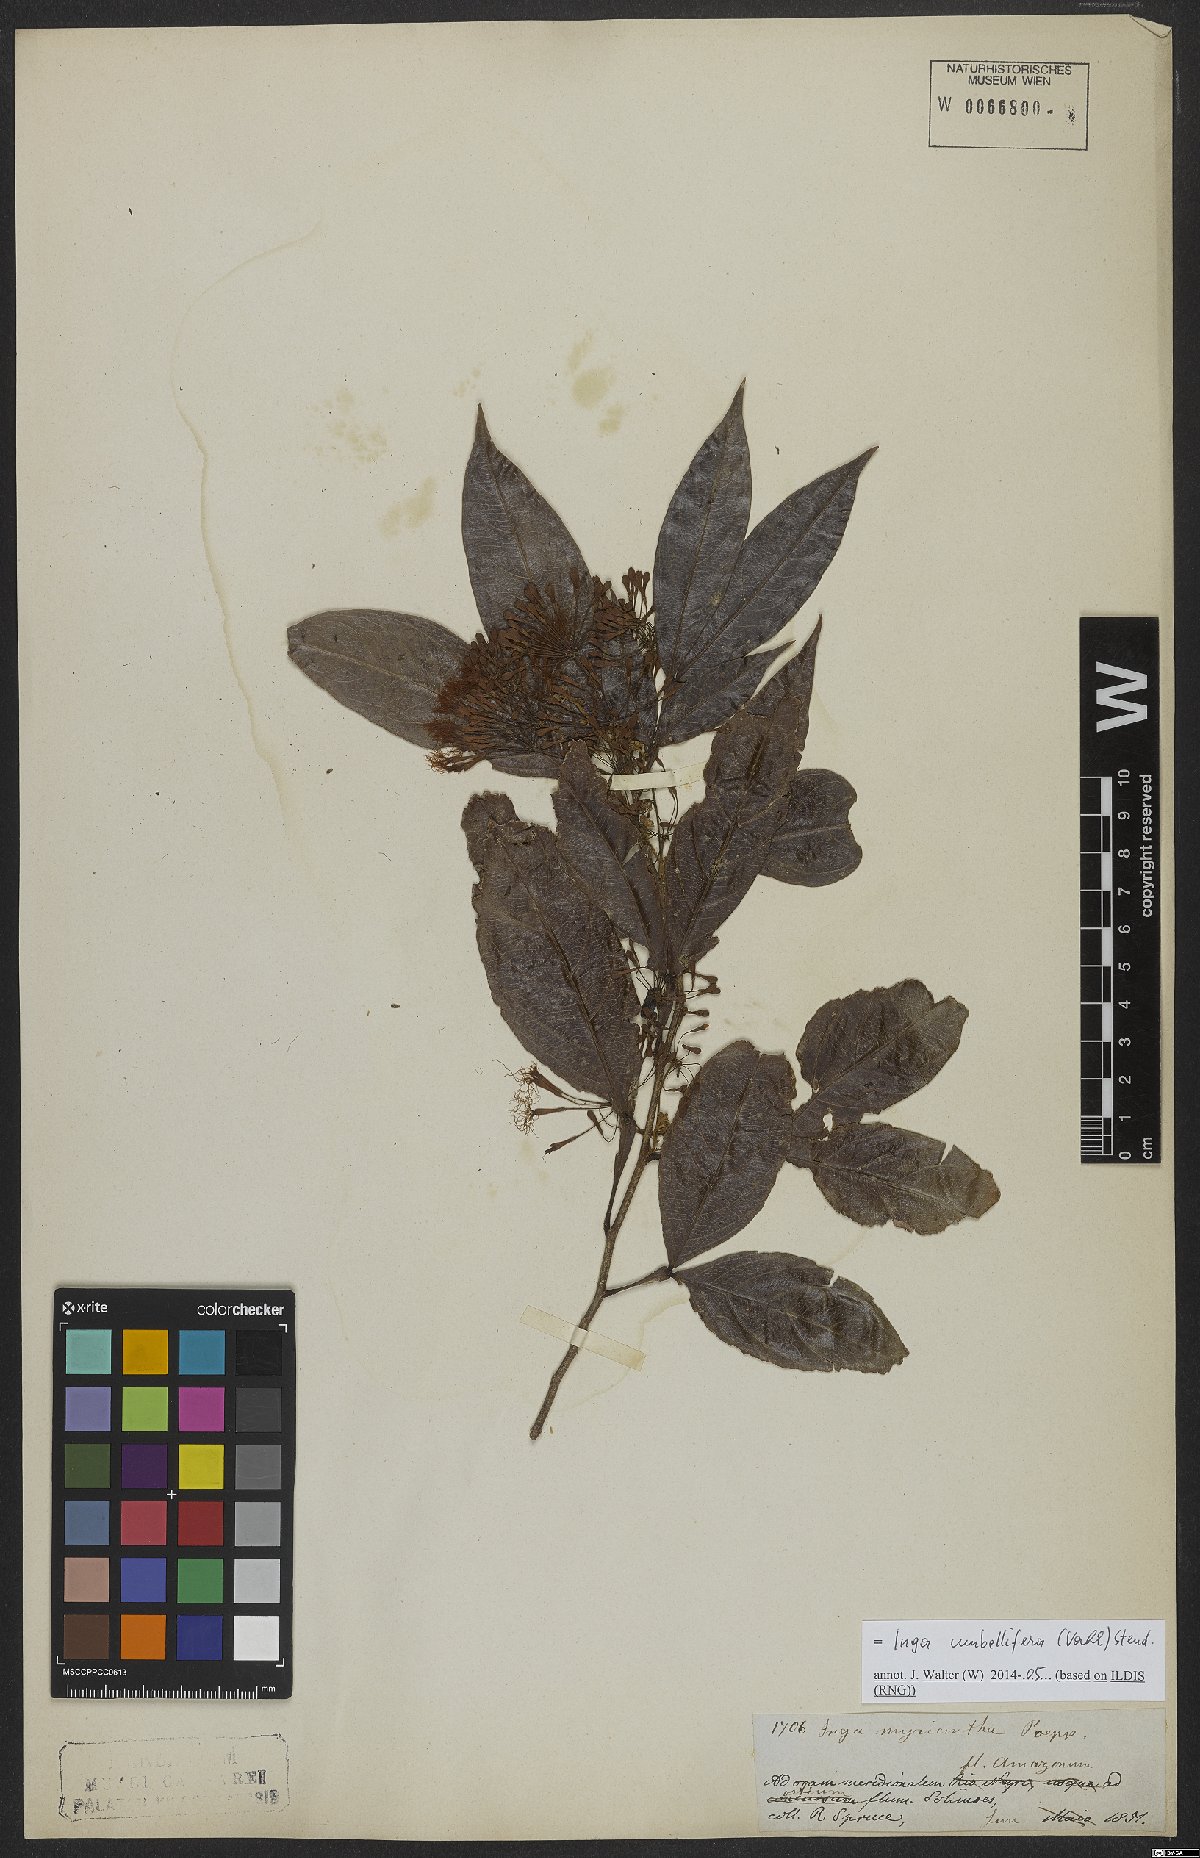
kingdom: Plantae
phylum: Tracheophyta
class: Magnoliopsida
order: Fabales
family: Fabaceae
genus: Inga
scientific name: Inga umbellifera
